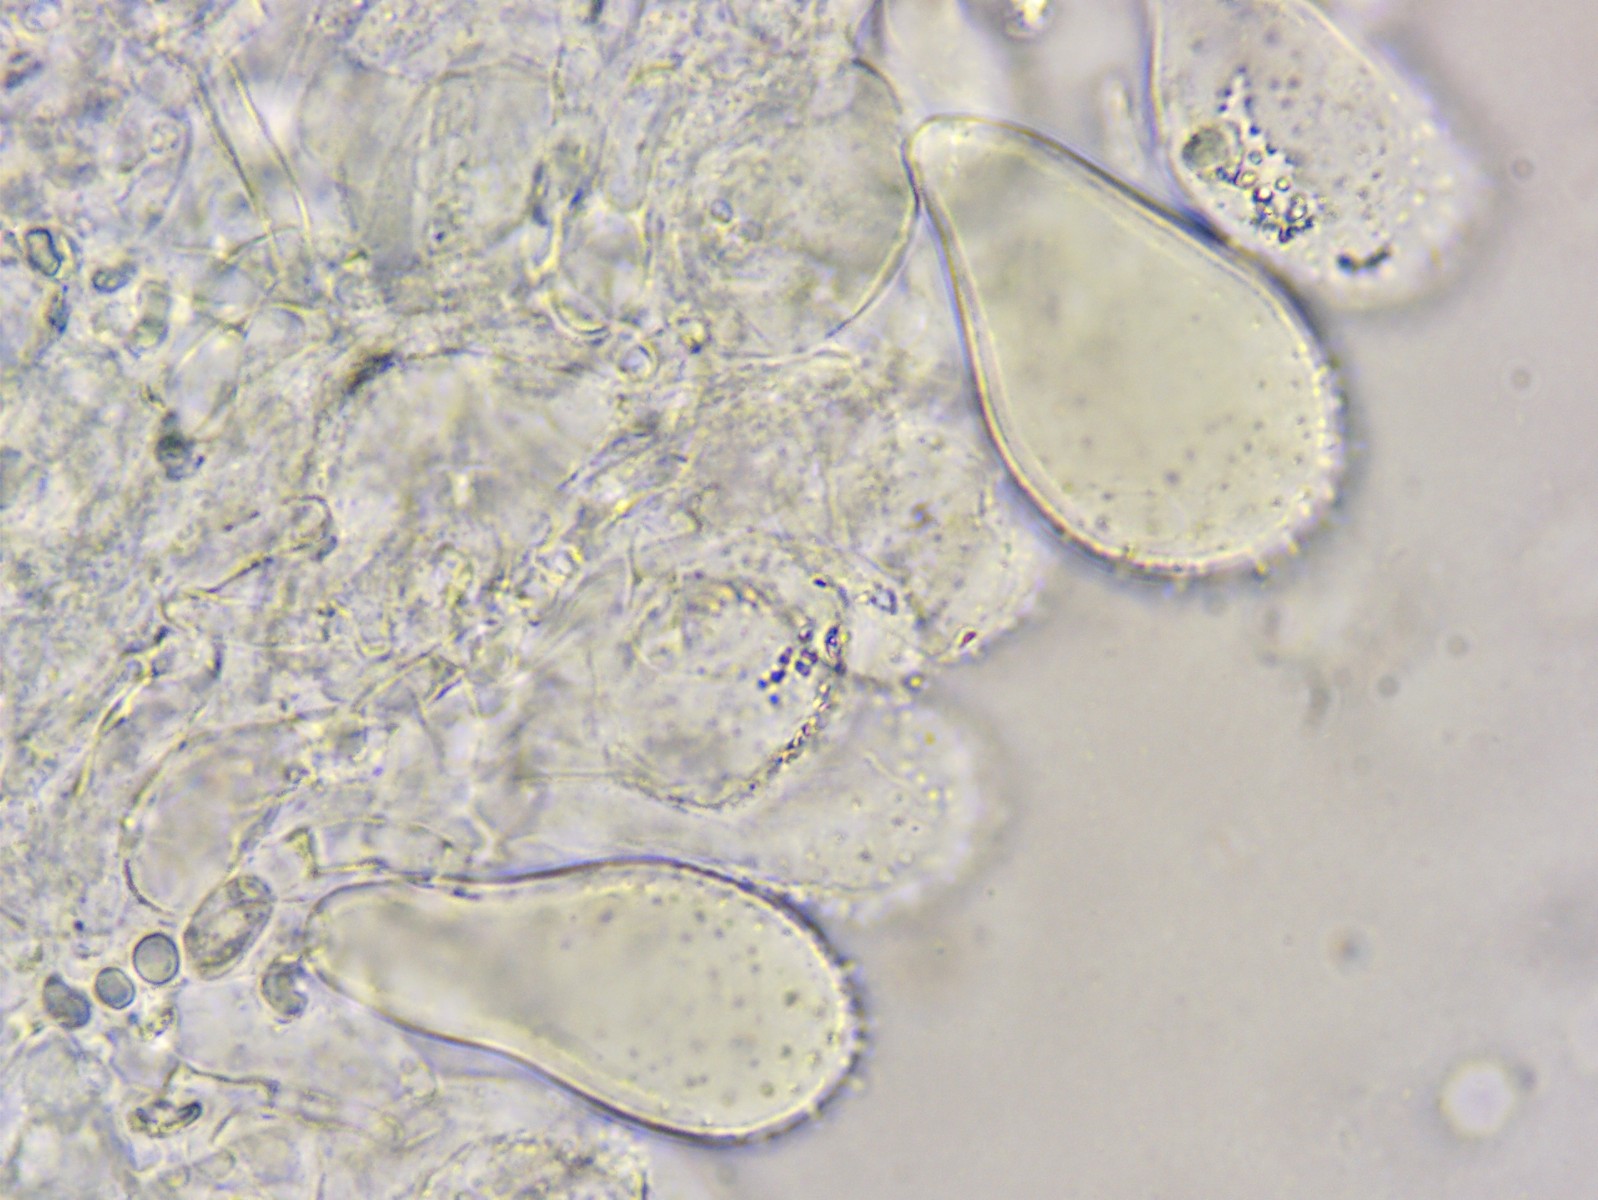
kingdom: Fungi
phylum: Basidiomycota
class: Agaricomycetes
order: Agaricales
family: Mycenaceae
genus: Mycena
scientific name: Mycena flavescens
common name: grågul huesvamp
